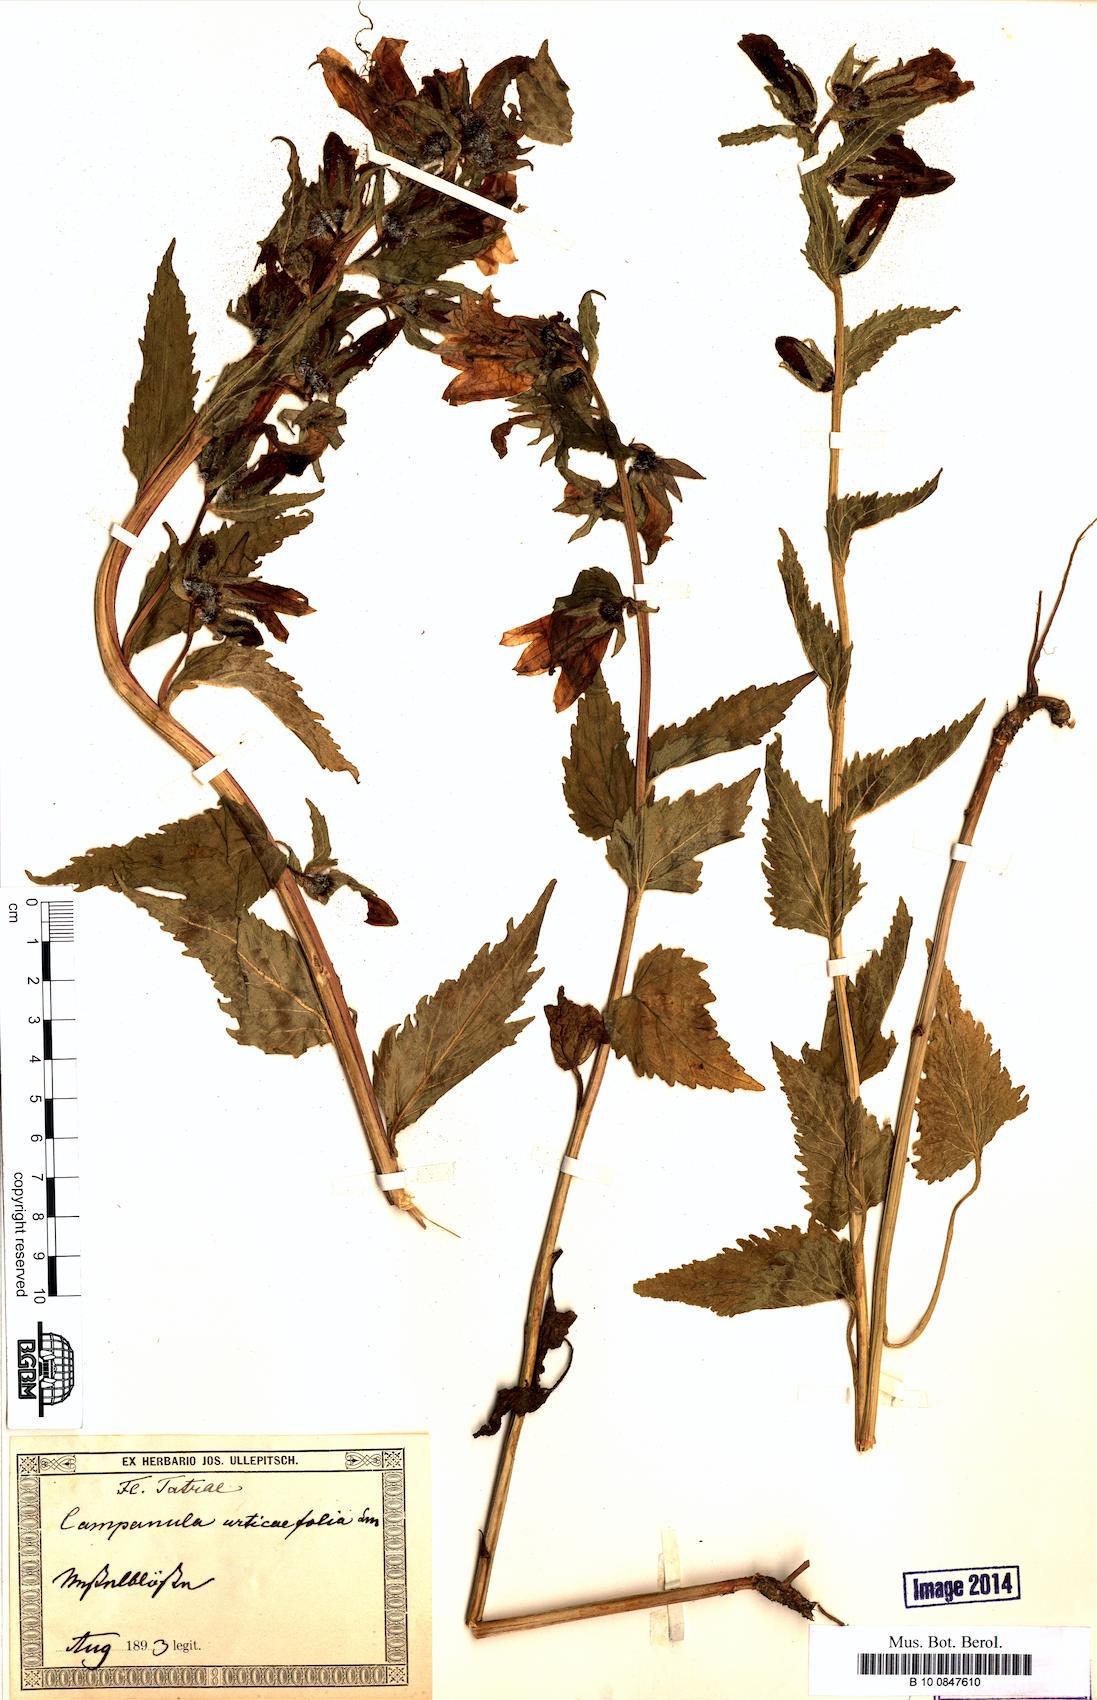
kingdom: Plantae
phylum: Tracheophyta
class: Magnoliopsida
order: Asterales
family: Campanulaceae
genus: Campanula
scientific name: Campanula trachelium
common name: Nettle-leaved bellflower
